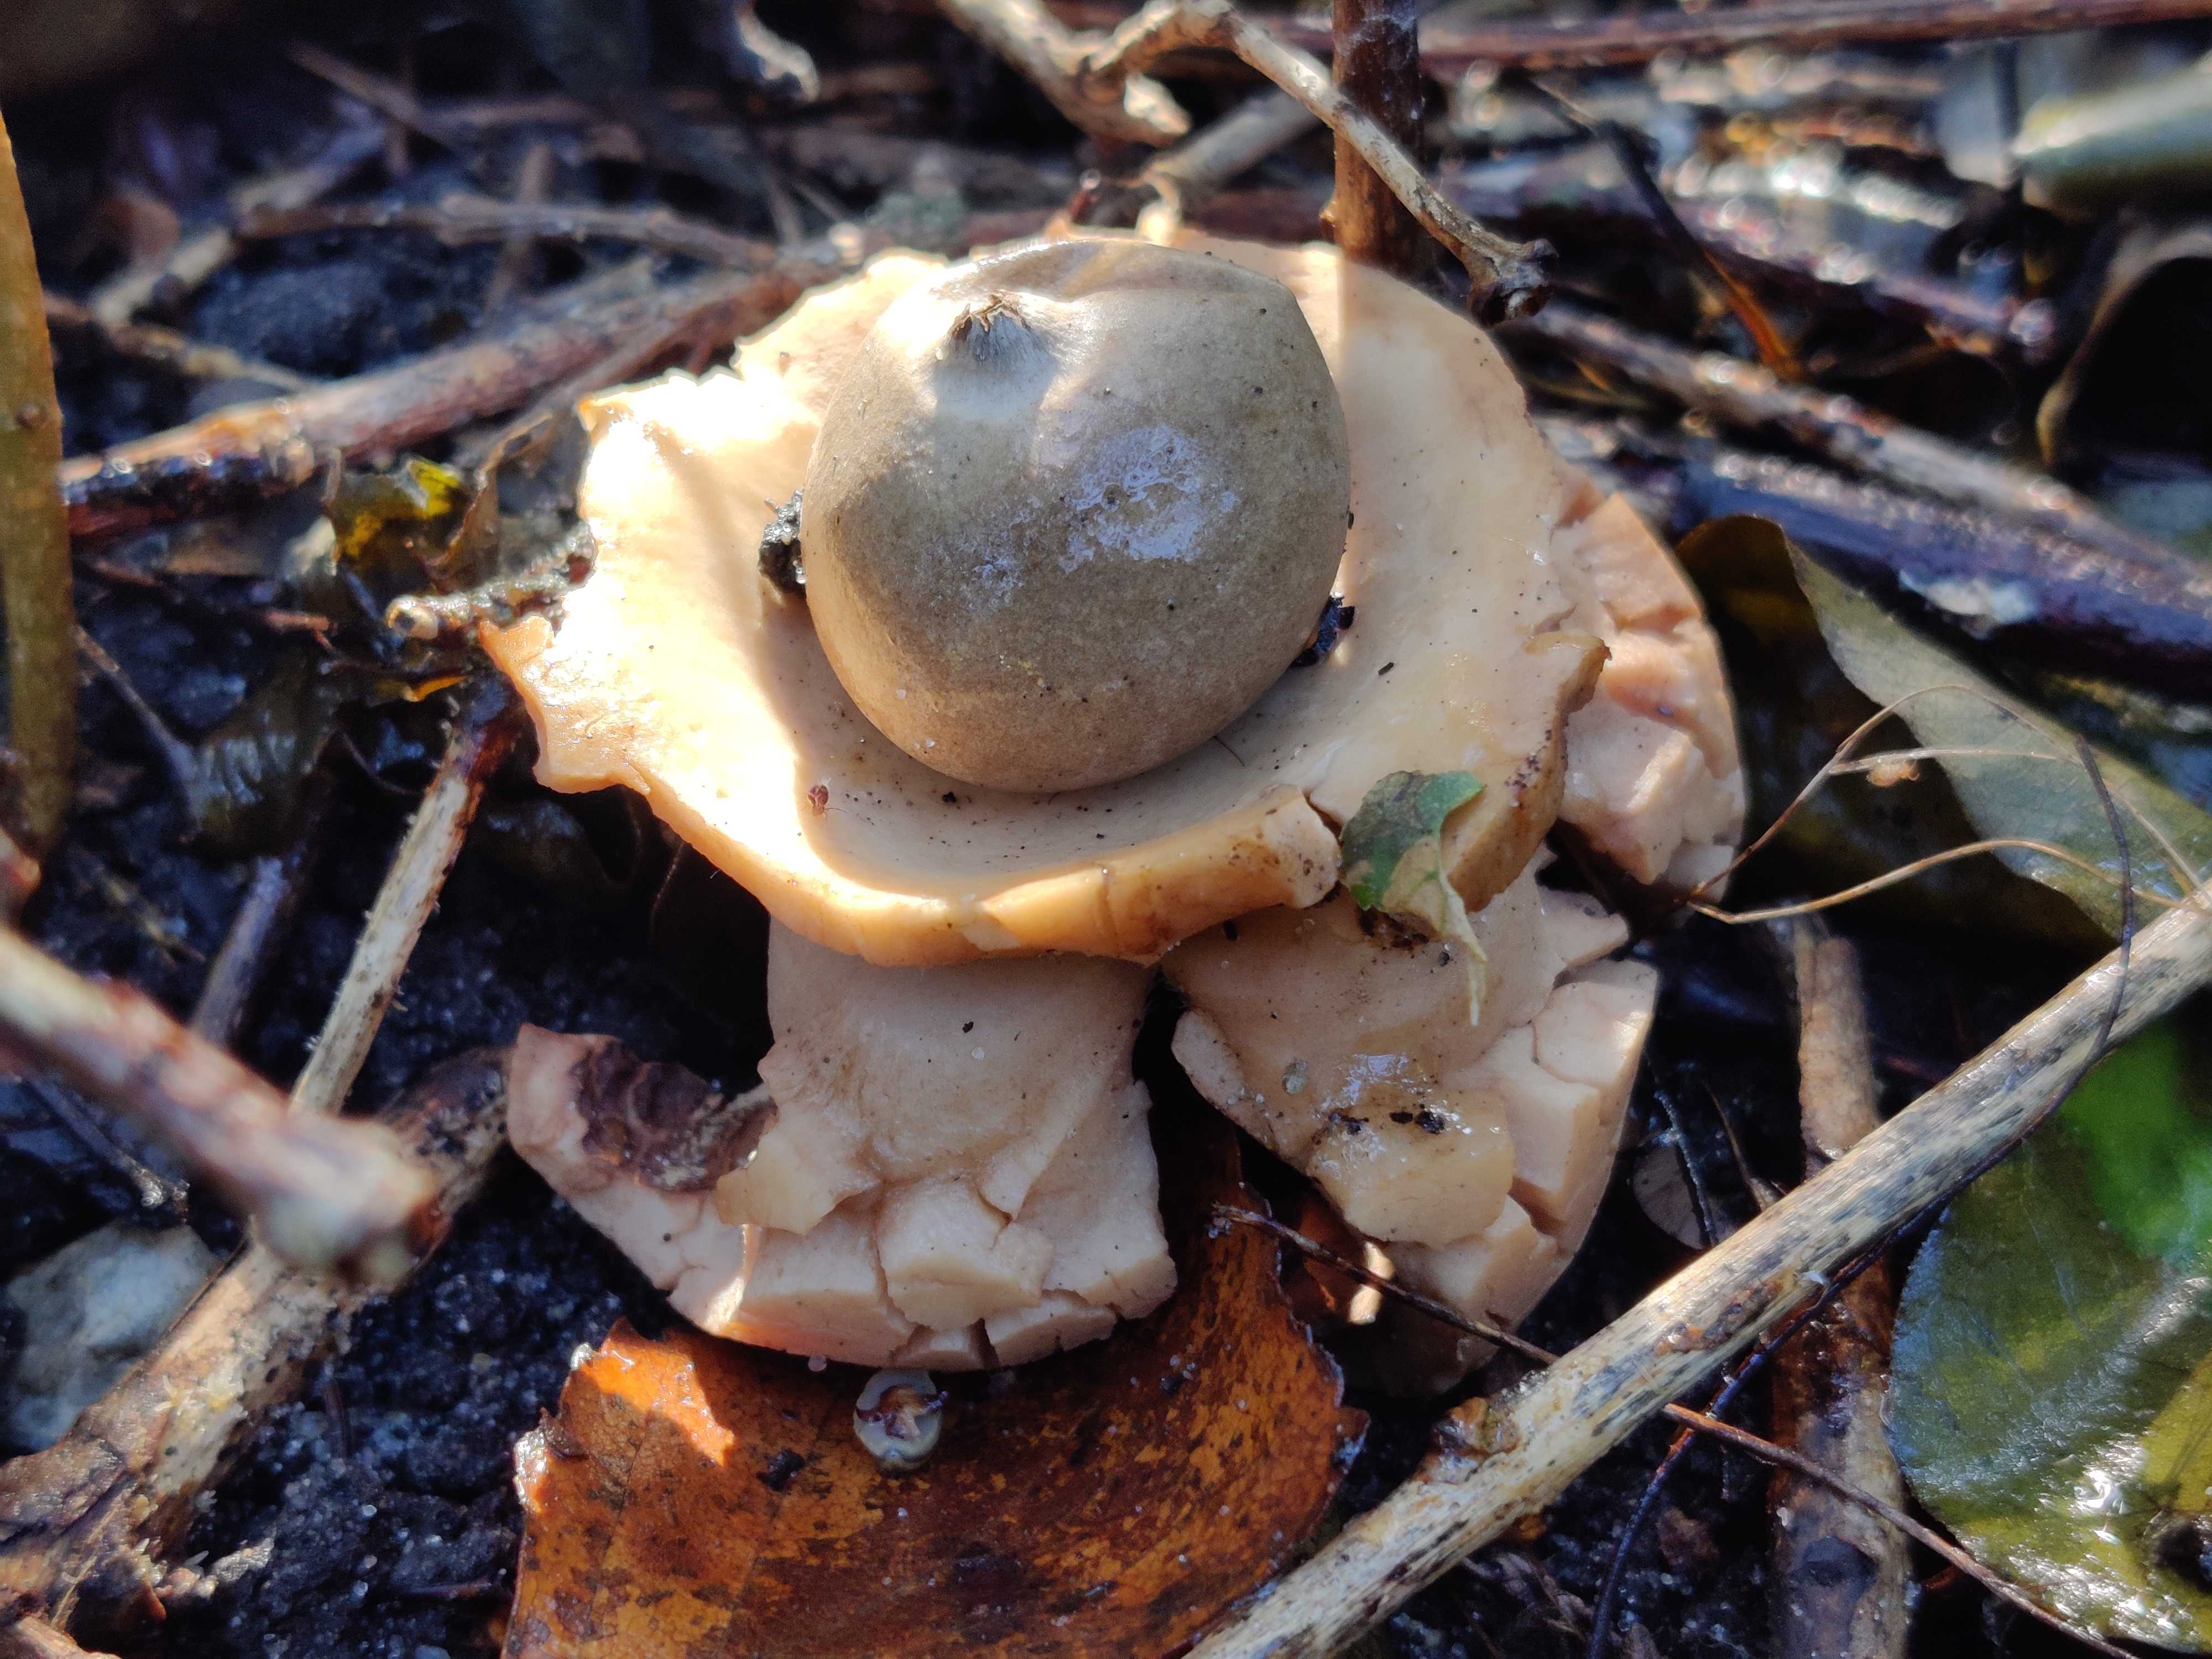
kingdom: Fungi
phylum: Basidiomycota
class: Agaricomycetes
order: Geastrales
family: Geastraceae
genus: Geastrum
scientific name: Geastrum michelianum
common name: kødet stjernebold
